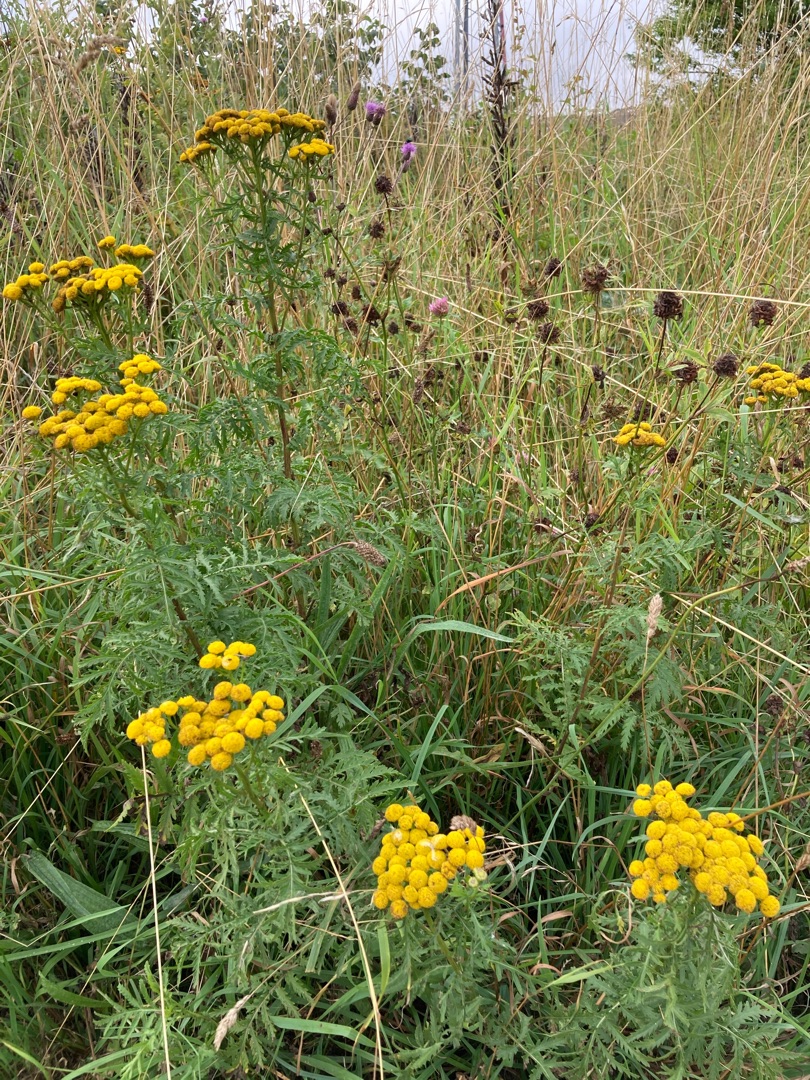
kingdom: Plantae
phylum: Tracheophyta
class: Magnoliopsida
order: Asterales
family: Asteraceae
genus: Tanacetum
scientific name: Tanacetum vulgare
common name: Rejnfan
